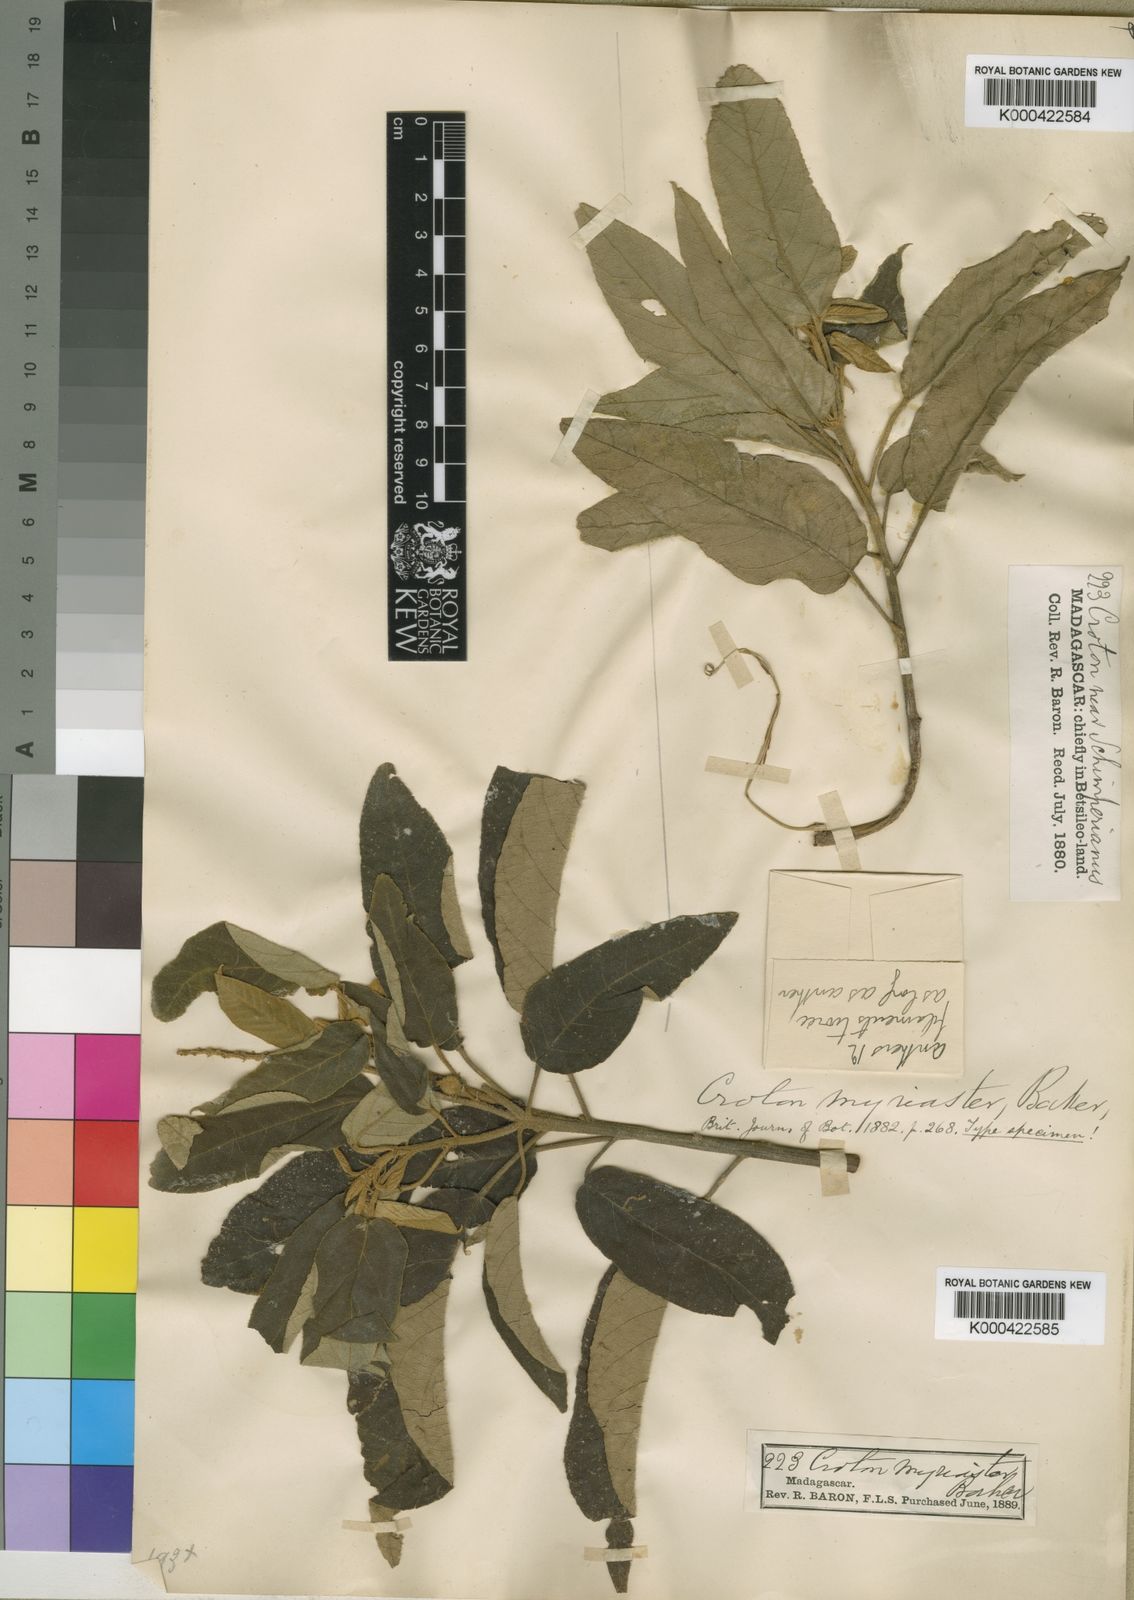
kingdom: Plantae
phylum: Tracheophyta
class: Magnoliopsida
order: Malpighiales
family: Euphorbiaceae
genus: Croton
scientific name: Croton myriaster
